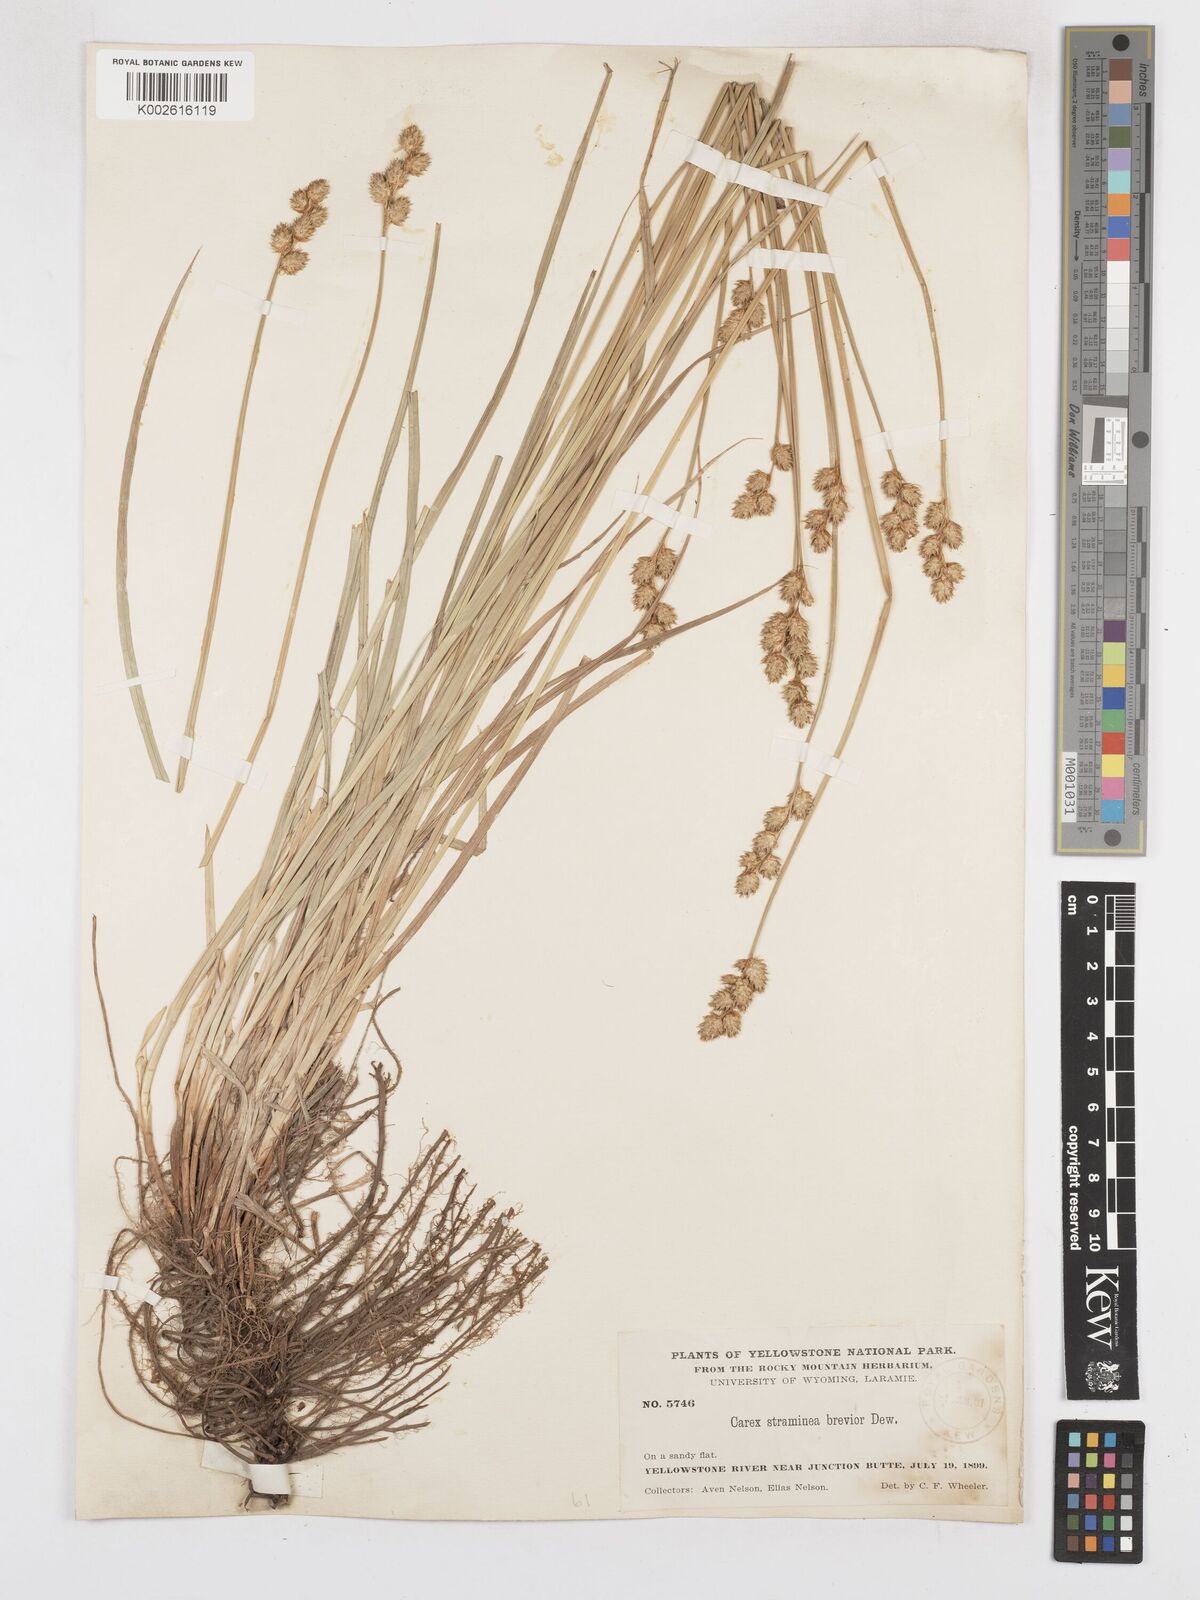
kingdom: Plantae
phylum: Tracheophyta
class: Liliopsida
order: Poales
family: Cyperaceae
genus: Carex
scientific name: Carex brevior
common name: Brevior sedge
